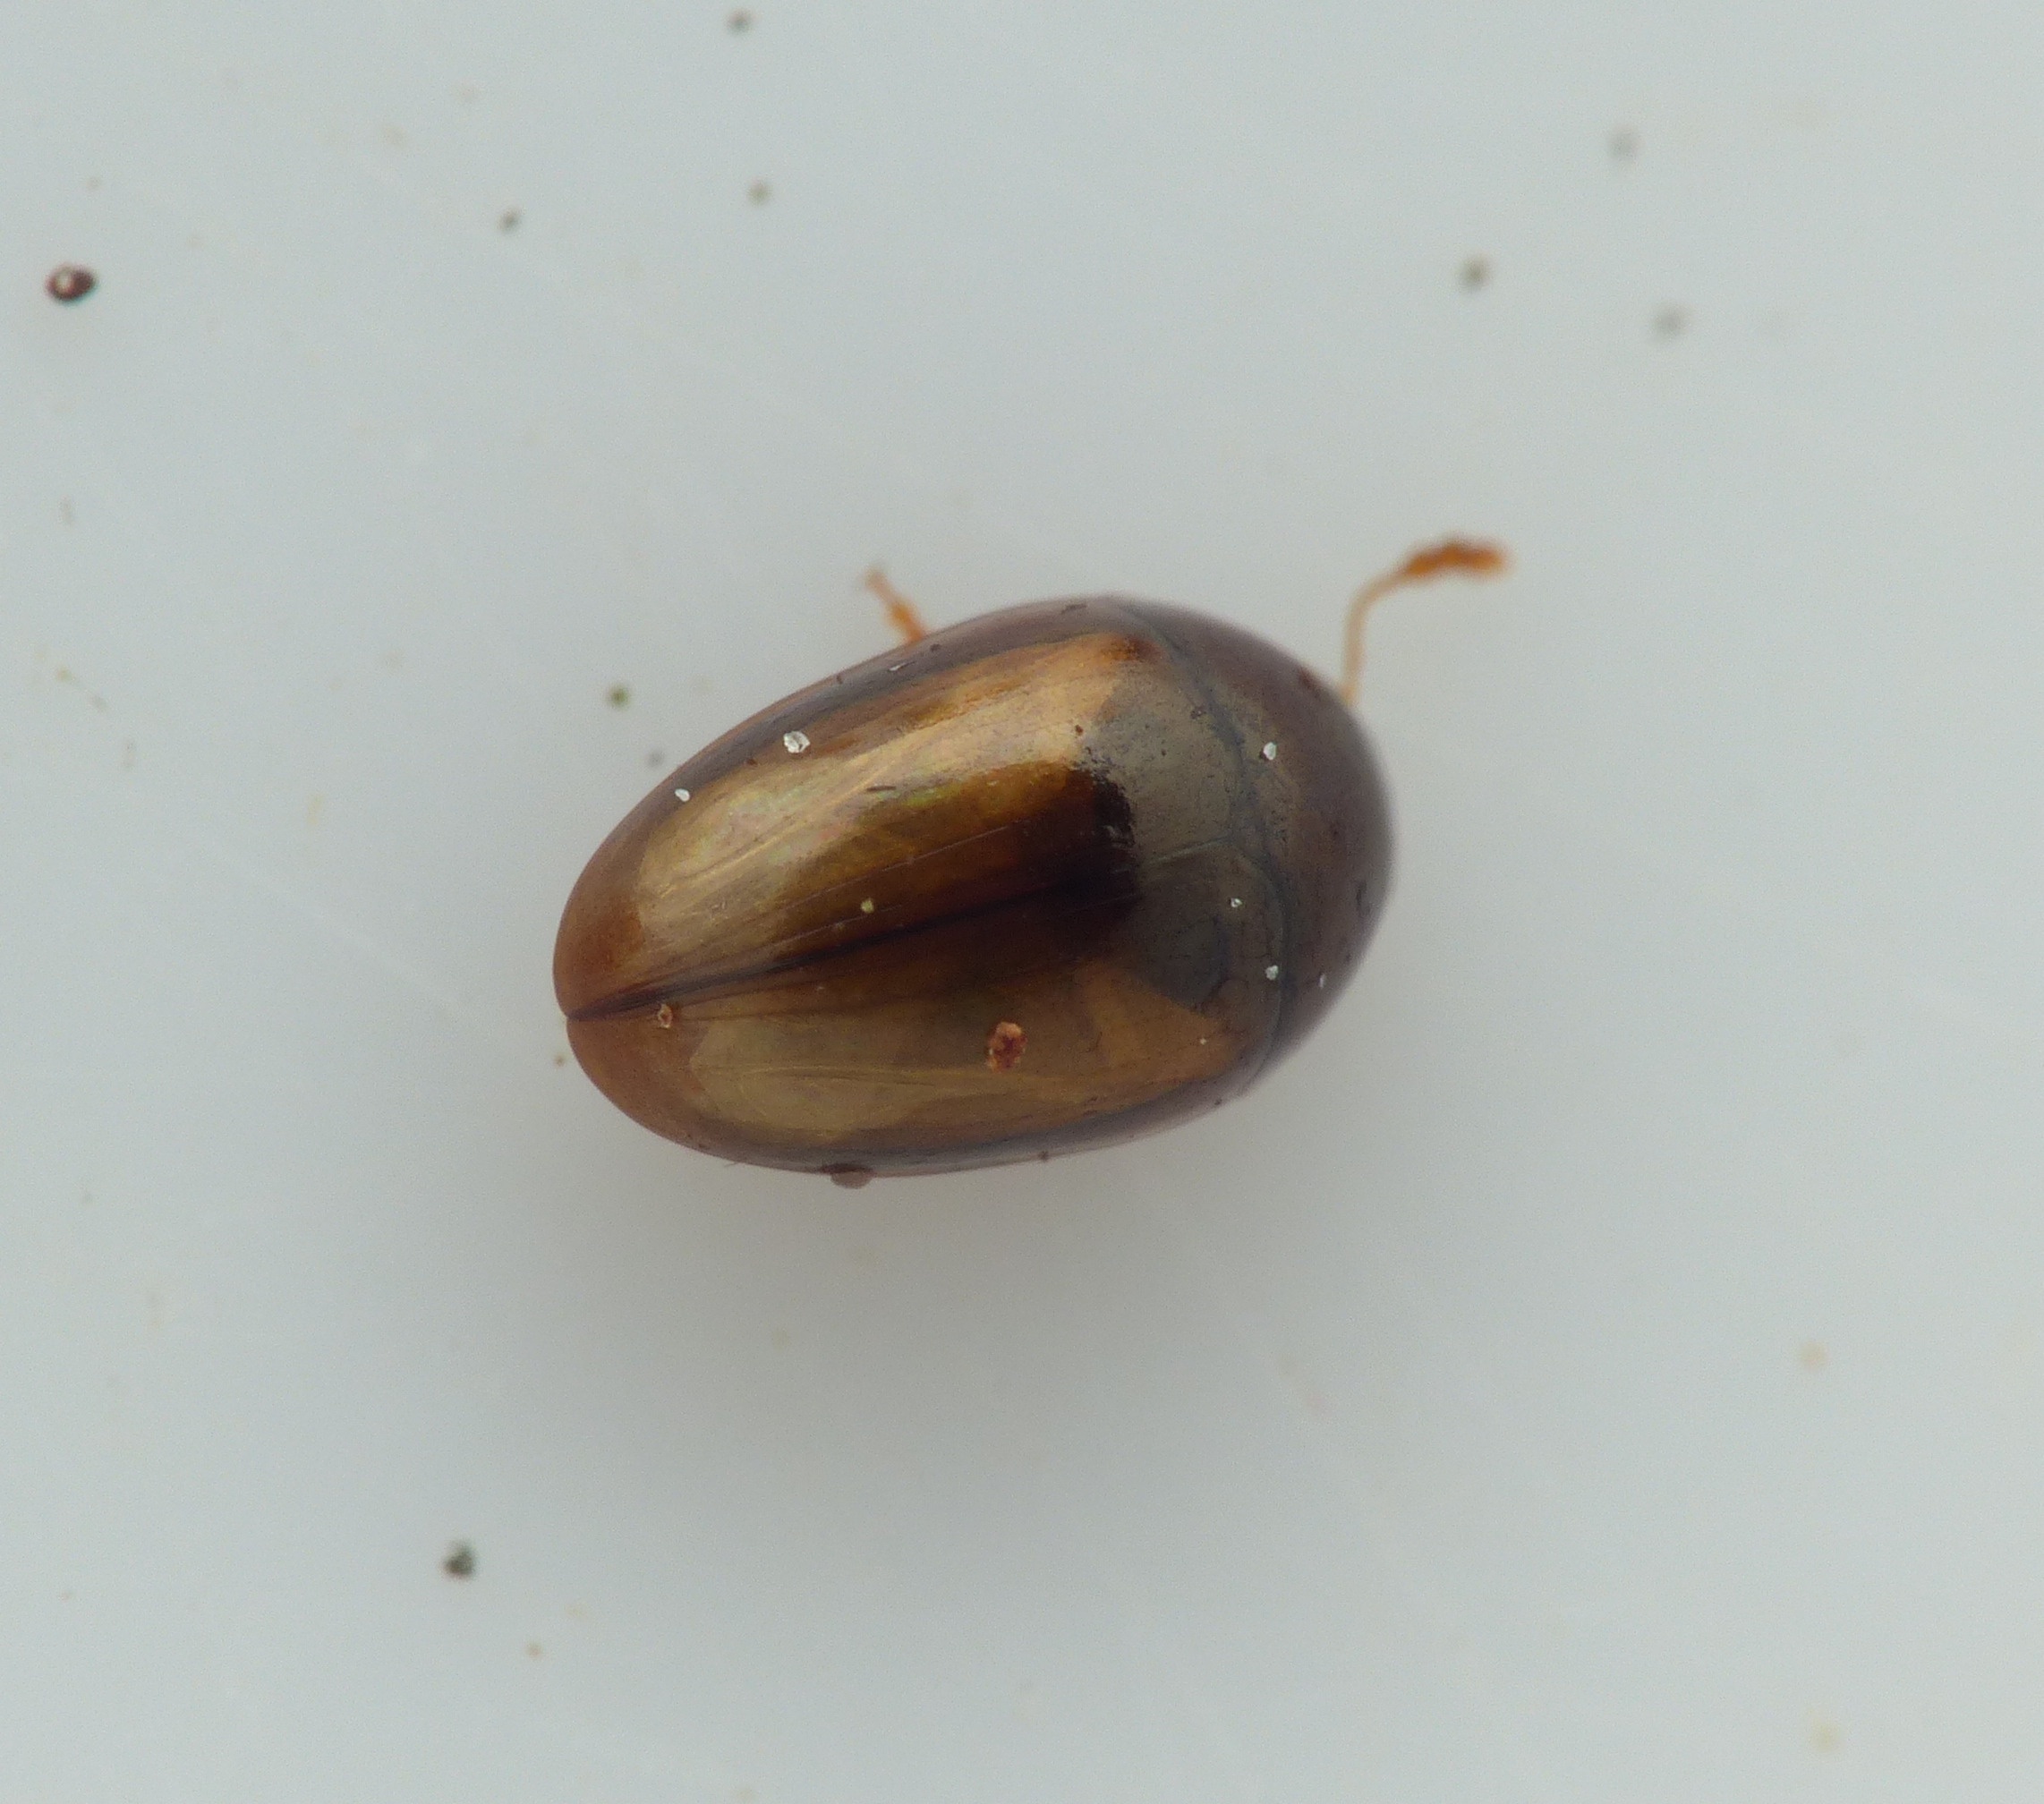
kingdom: Animalia
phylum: Arthropoda
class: Insecta
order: Coleoptera
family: Phalacridae
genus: Olibrus
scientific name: Olibrus corticalis
